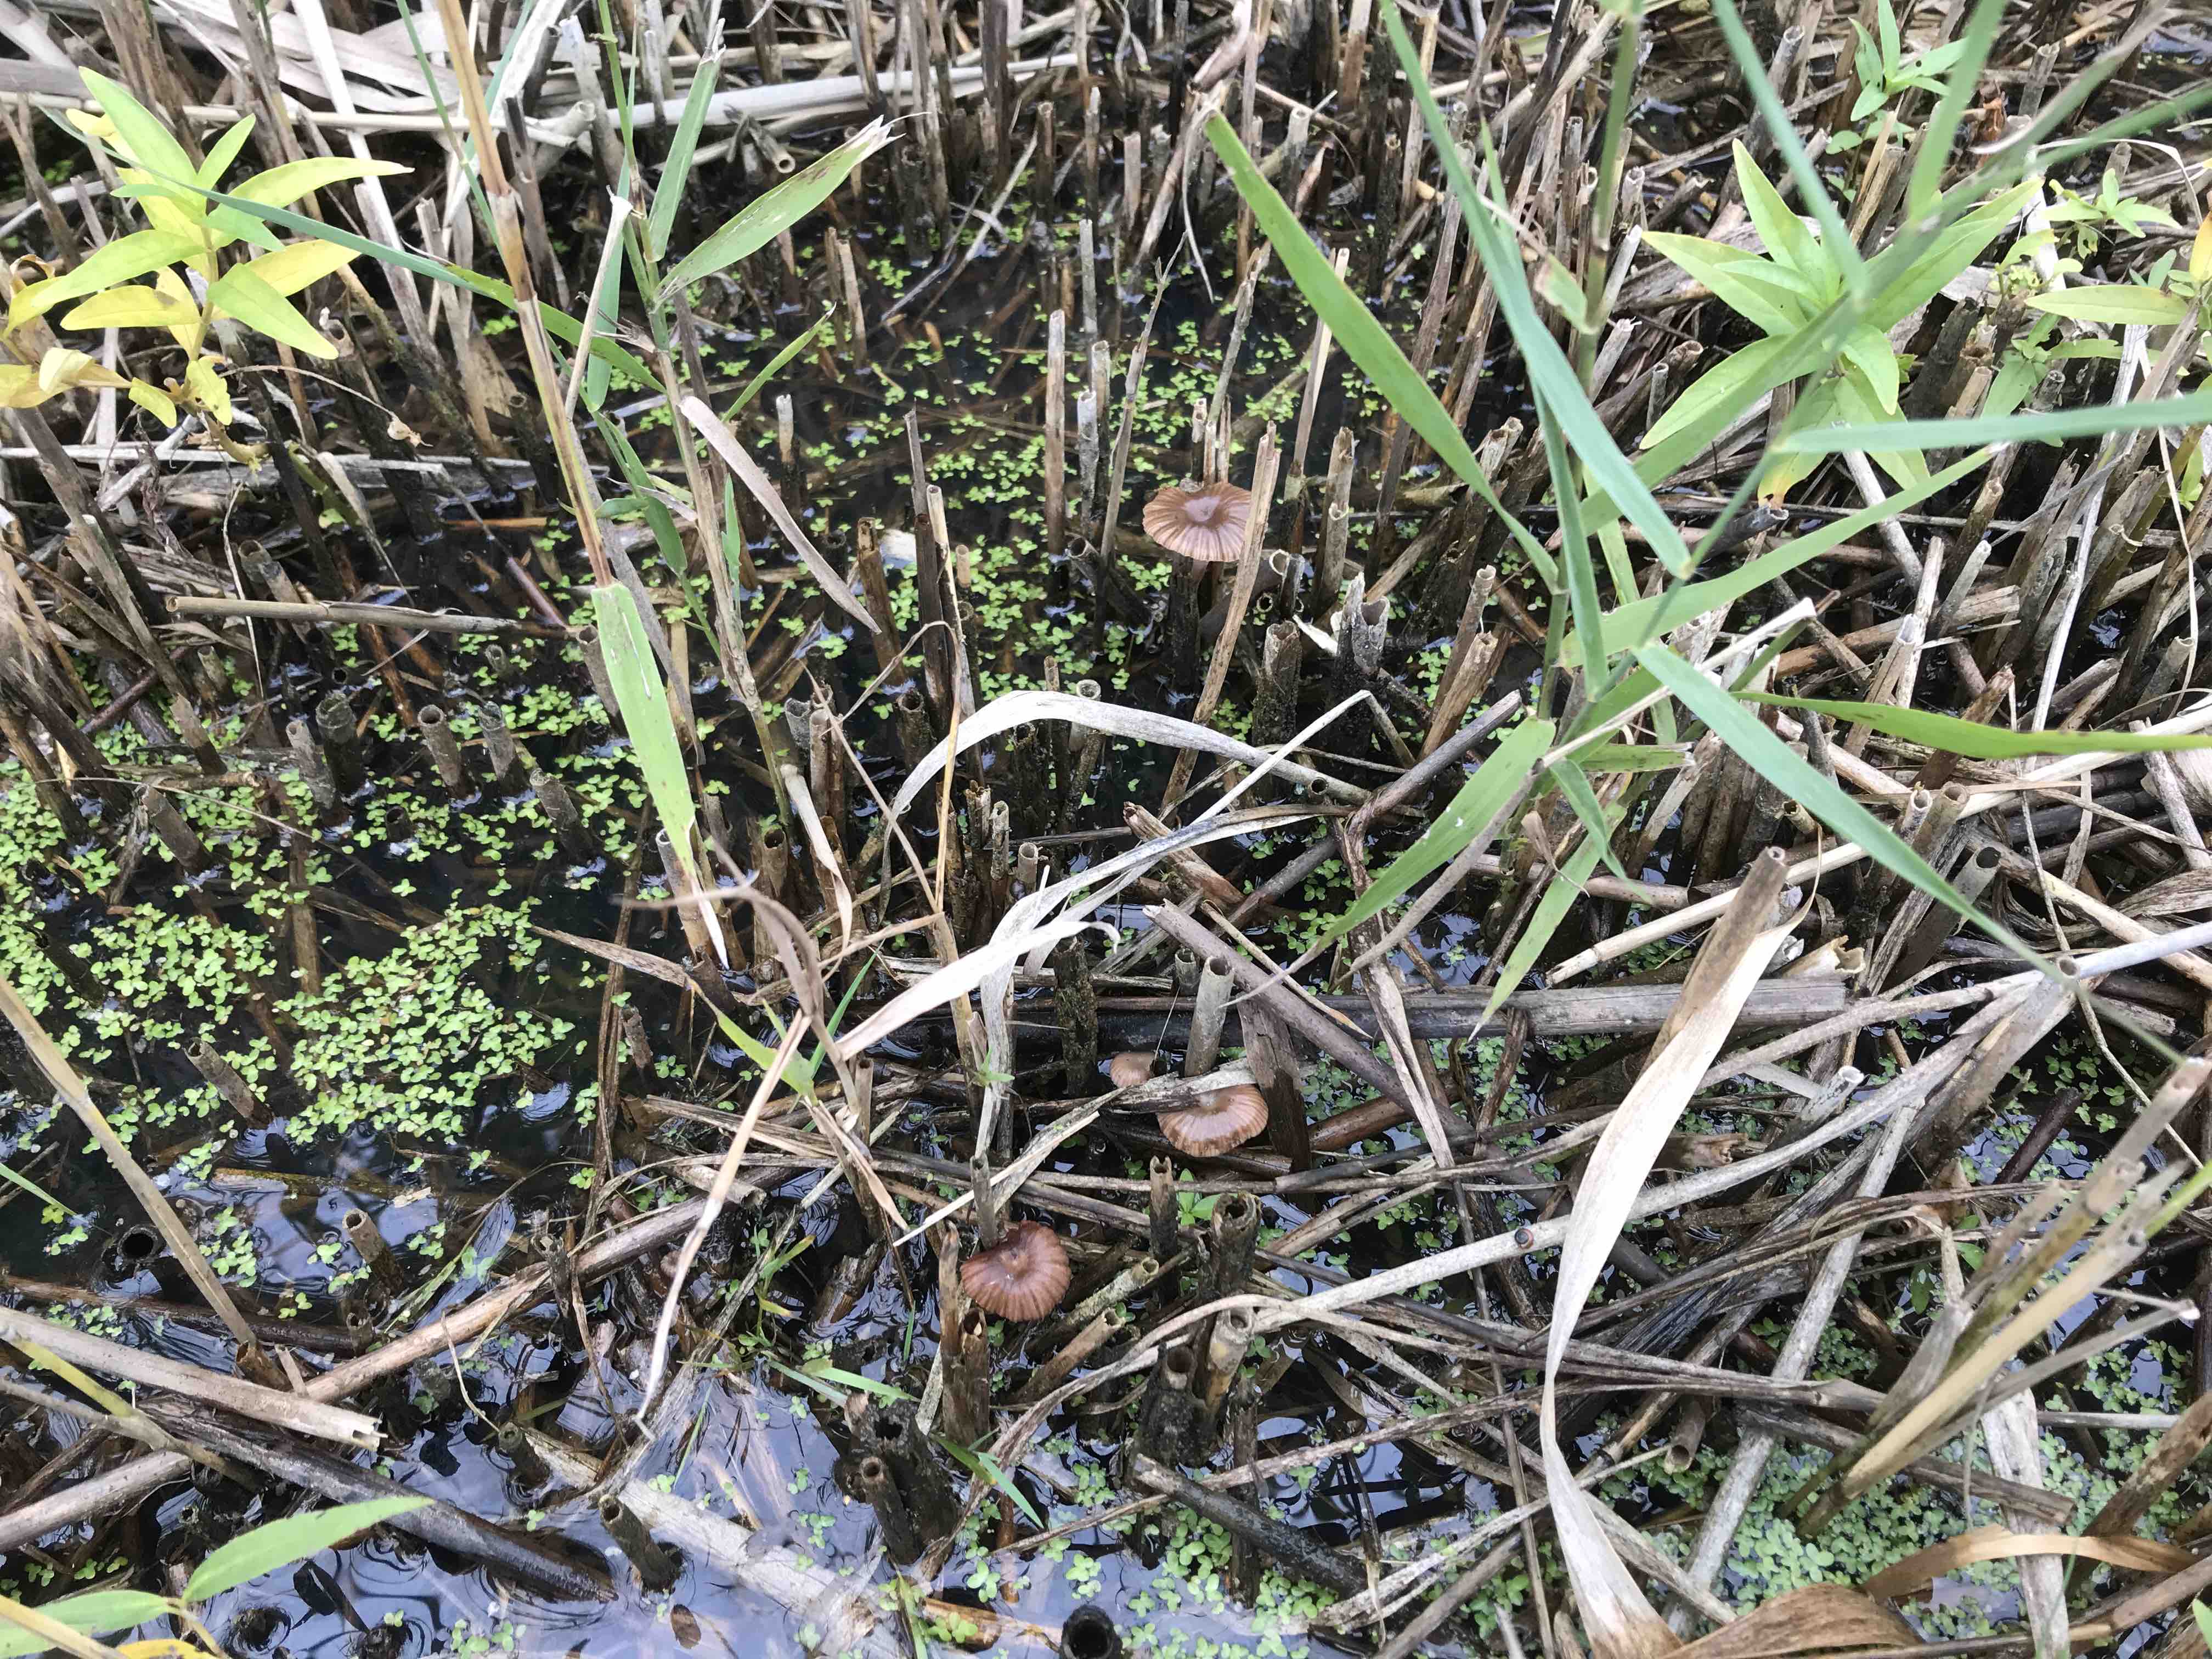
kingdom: Fungi
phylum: Basidiomycota
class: Agaricomycetes
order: Agaricales
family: Mycenaceae
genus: Mycena
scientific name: Mycena belliae
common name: tagrørs-huesvamp
